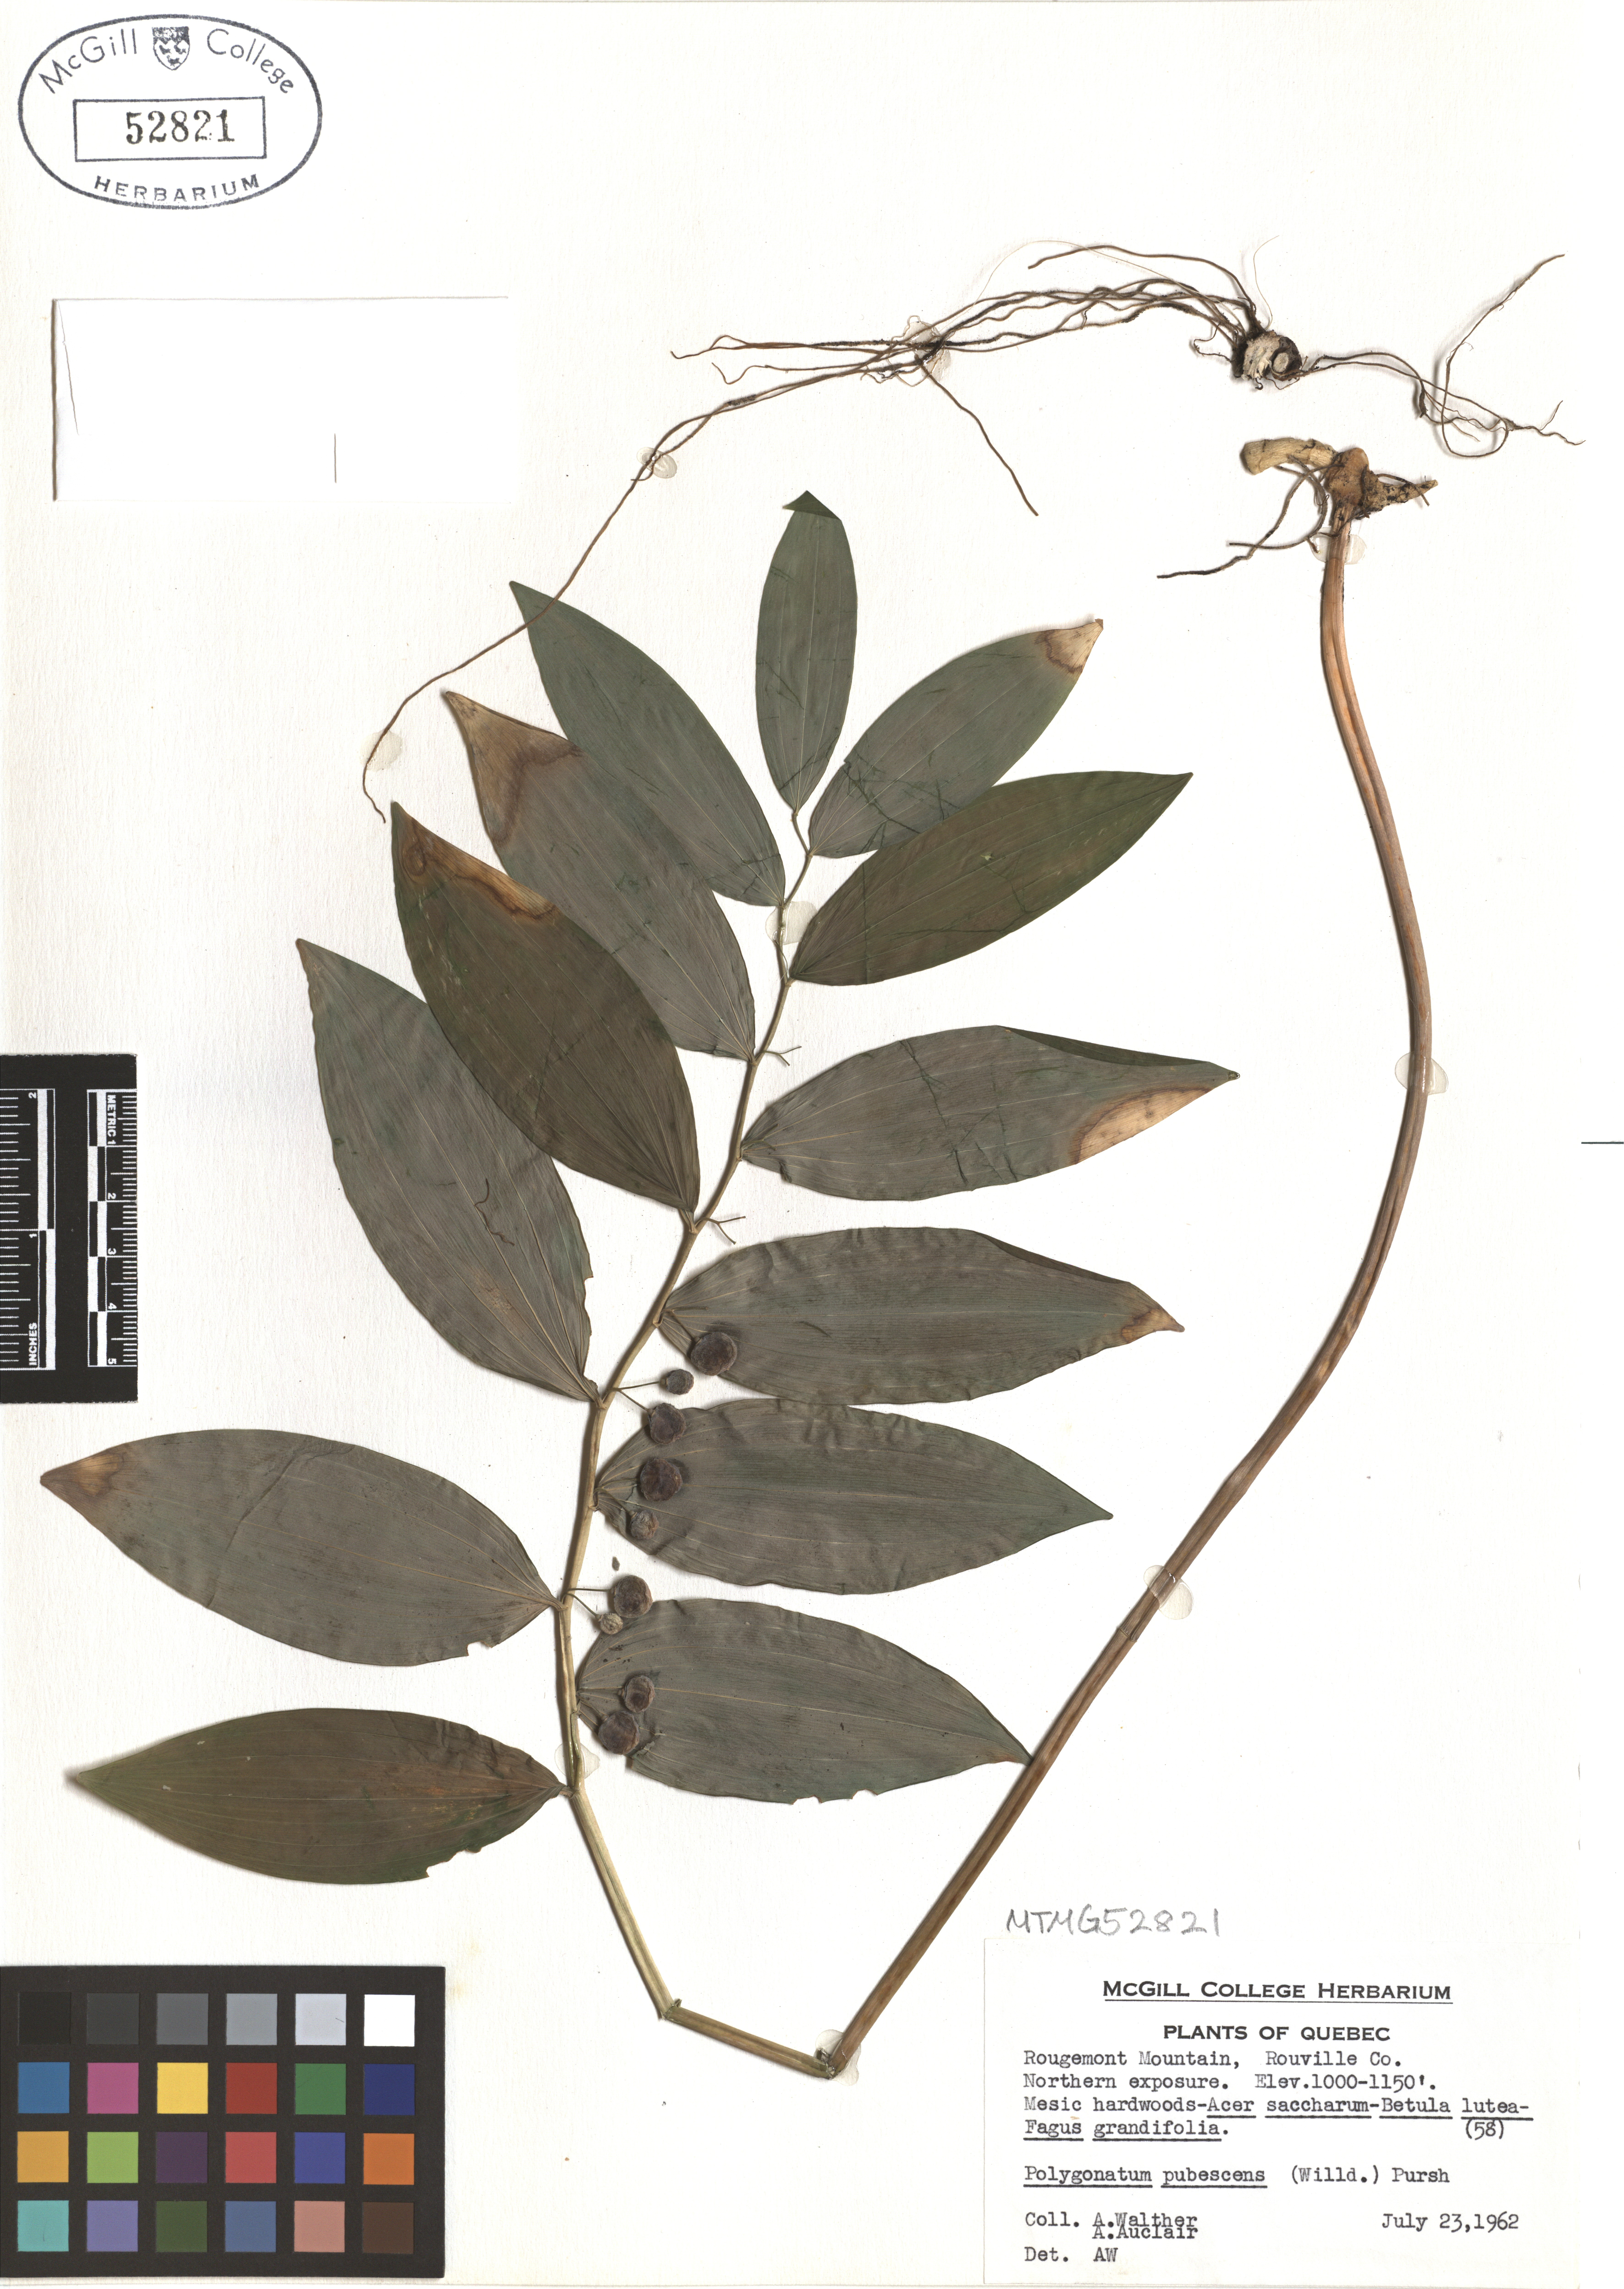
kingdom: Plantae
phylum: Tracheophyta
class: Liliopsida
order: Asparagales
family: Asparagaceae
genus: Polygonatum
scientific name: Polygonatum pubescens
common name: Downy solomon's seal
